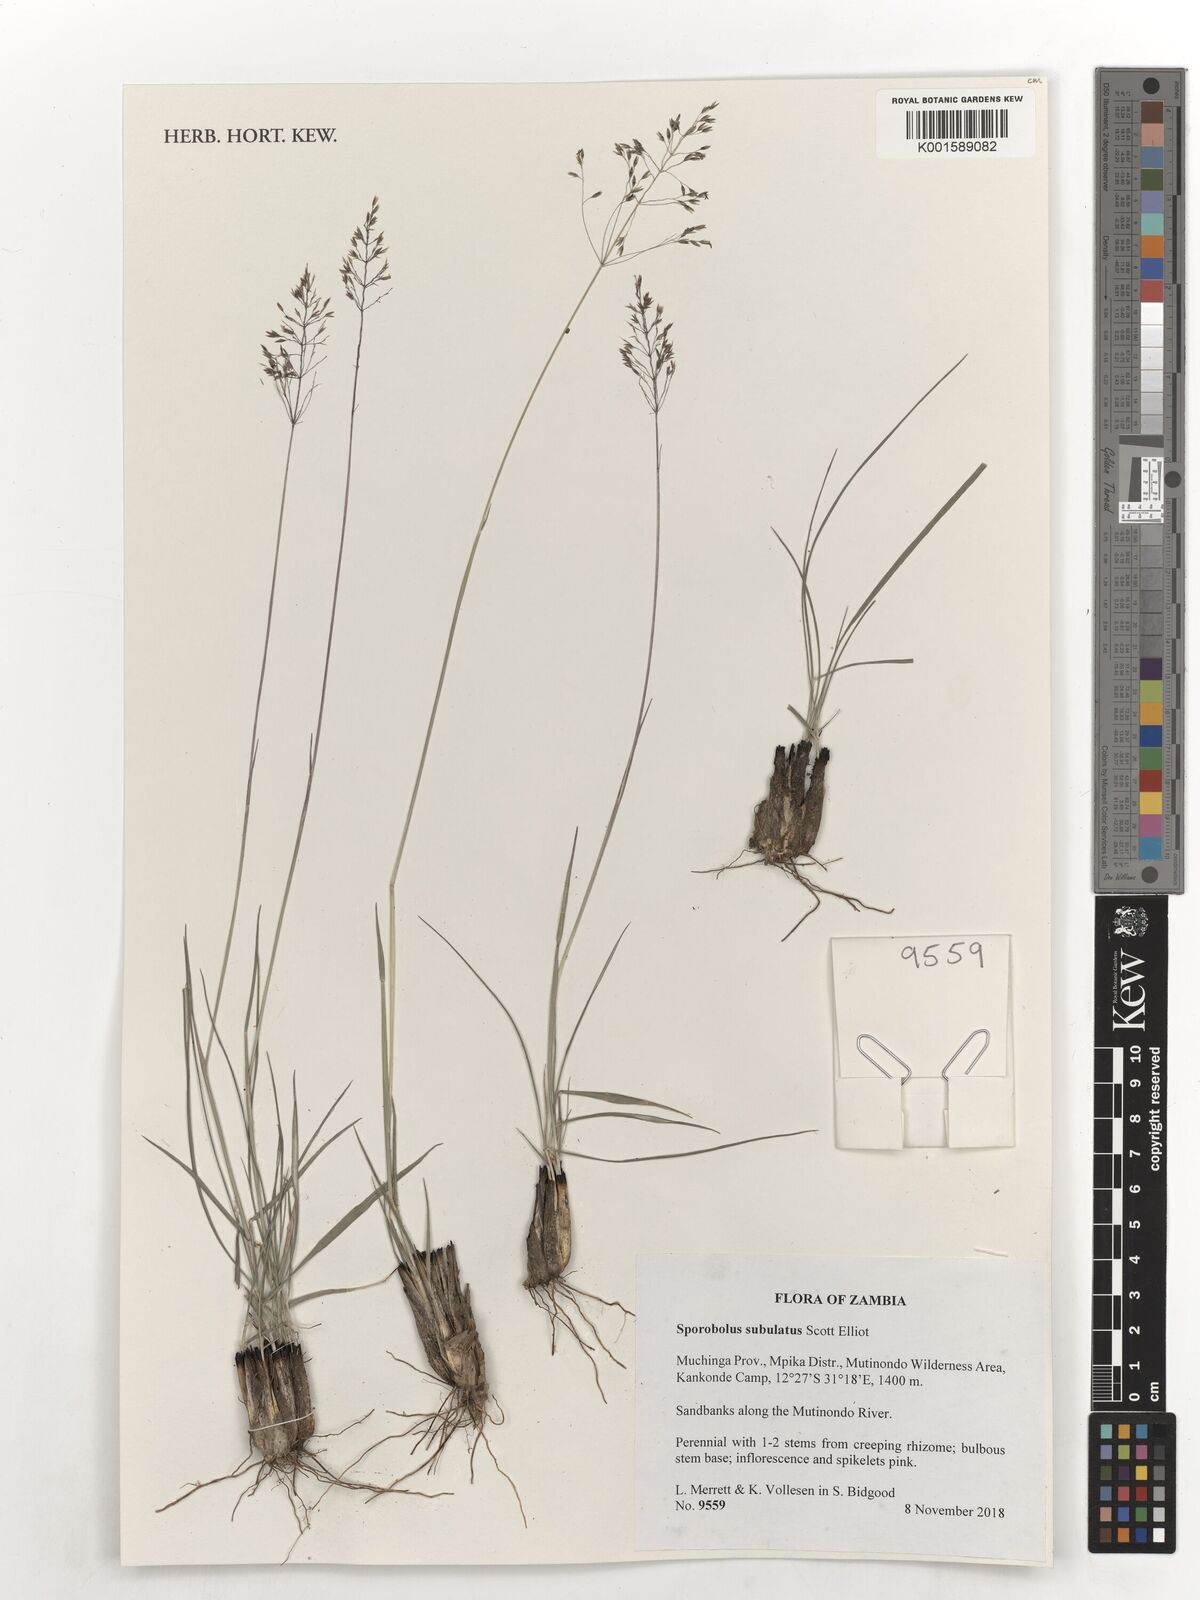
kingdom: Plantae
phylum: Tracheophyta
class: Liliopsida
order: Poales
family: Poaceae
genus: Sporobolus
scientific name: Sporobolus subulatus
